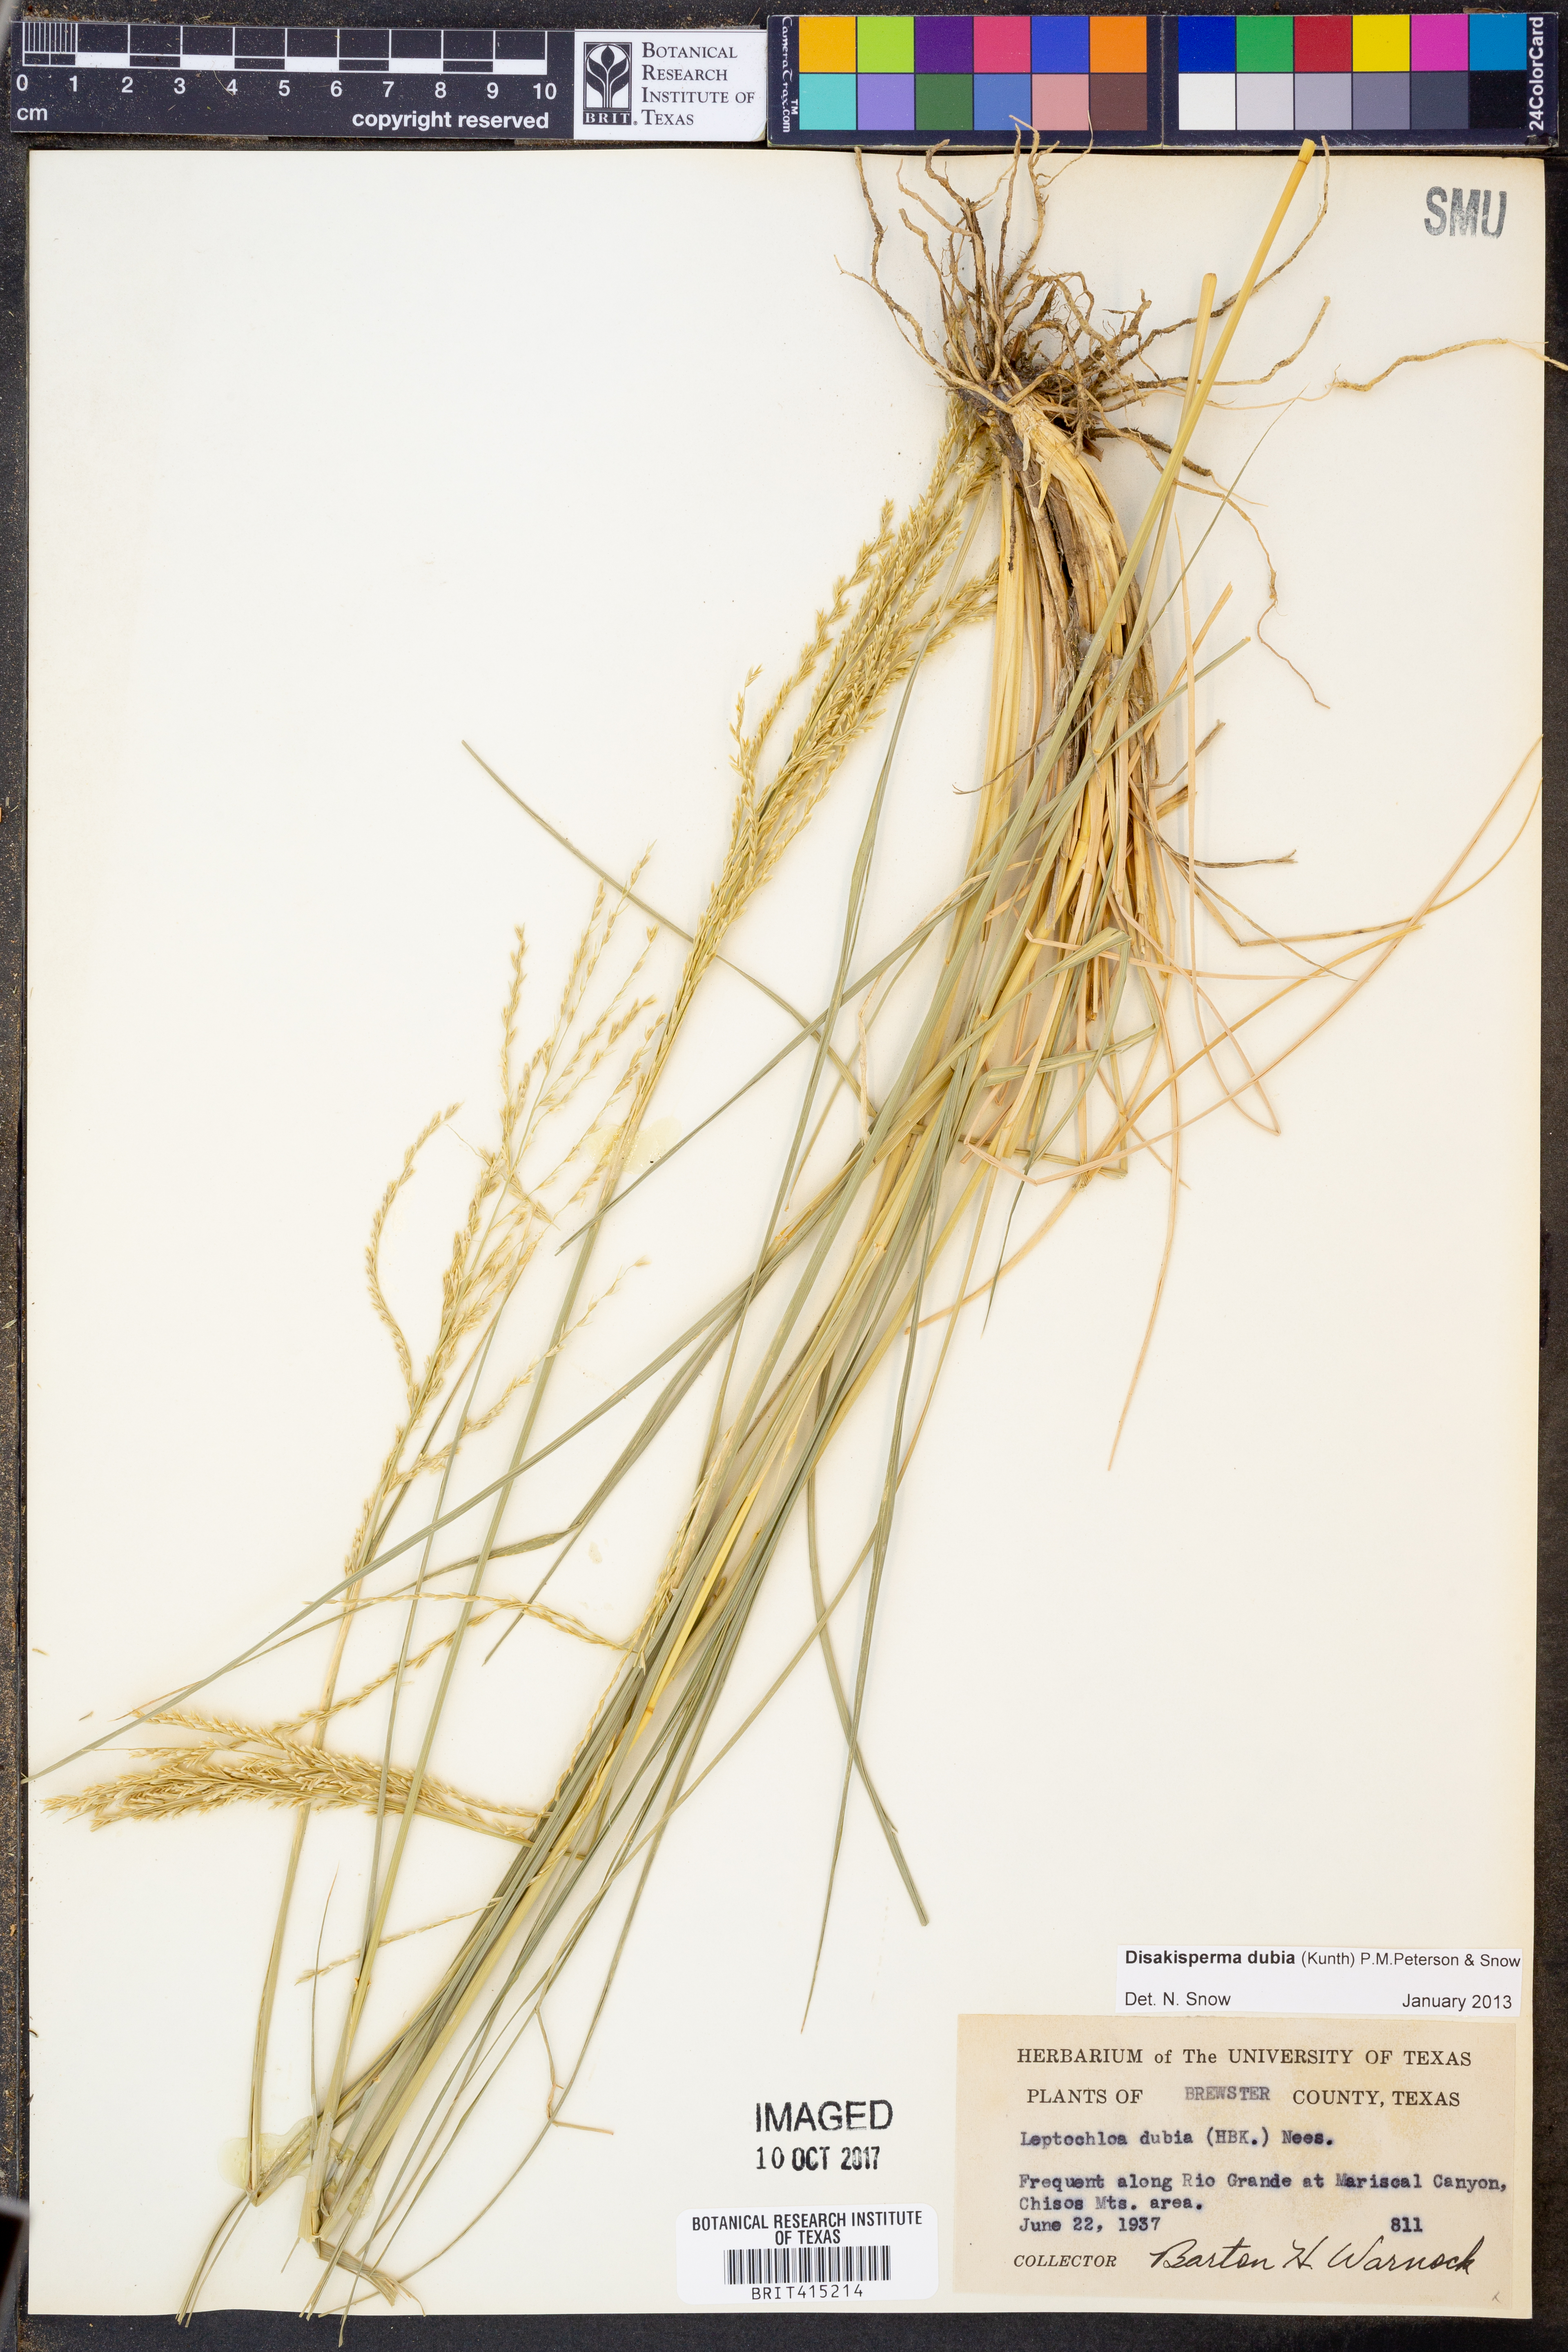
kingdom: Plantae
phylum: Tracheophyta
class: Liliopsida
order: Poales
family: Poaceae
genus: Disakisperma
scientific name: Disakisperma dubium
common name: Green sprangletop
